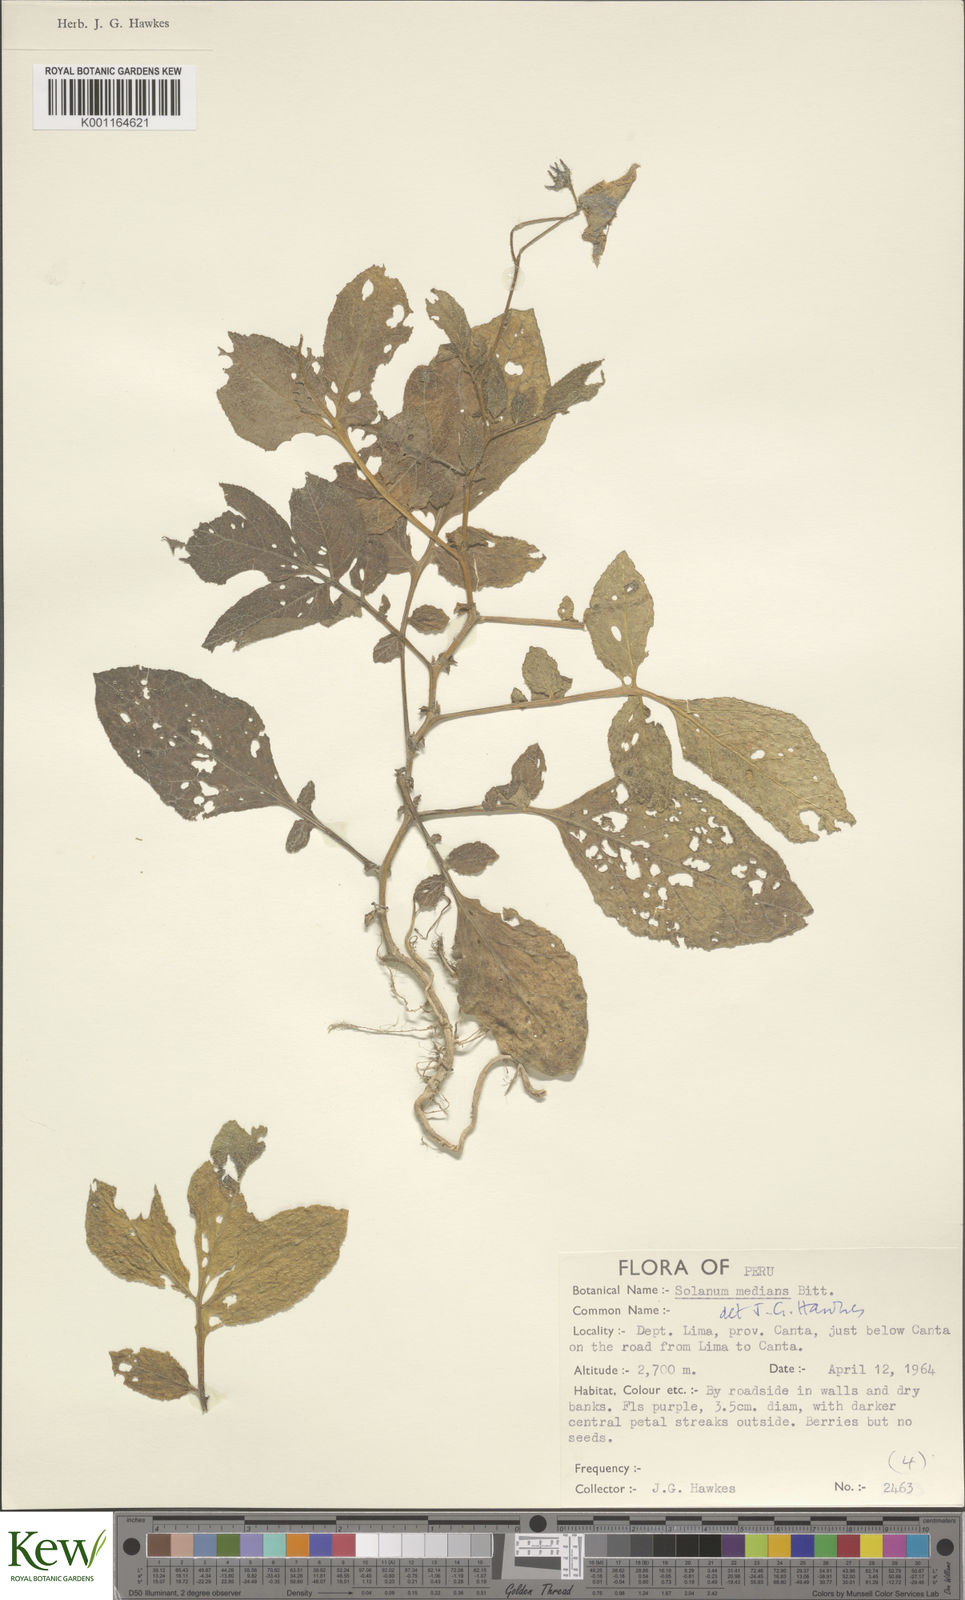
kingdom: Plantae
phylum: Tracheophyta
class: Magnoliopsida
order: Solanales
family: Solanaceae
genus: Solanum
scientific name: Solanum medians
